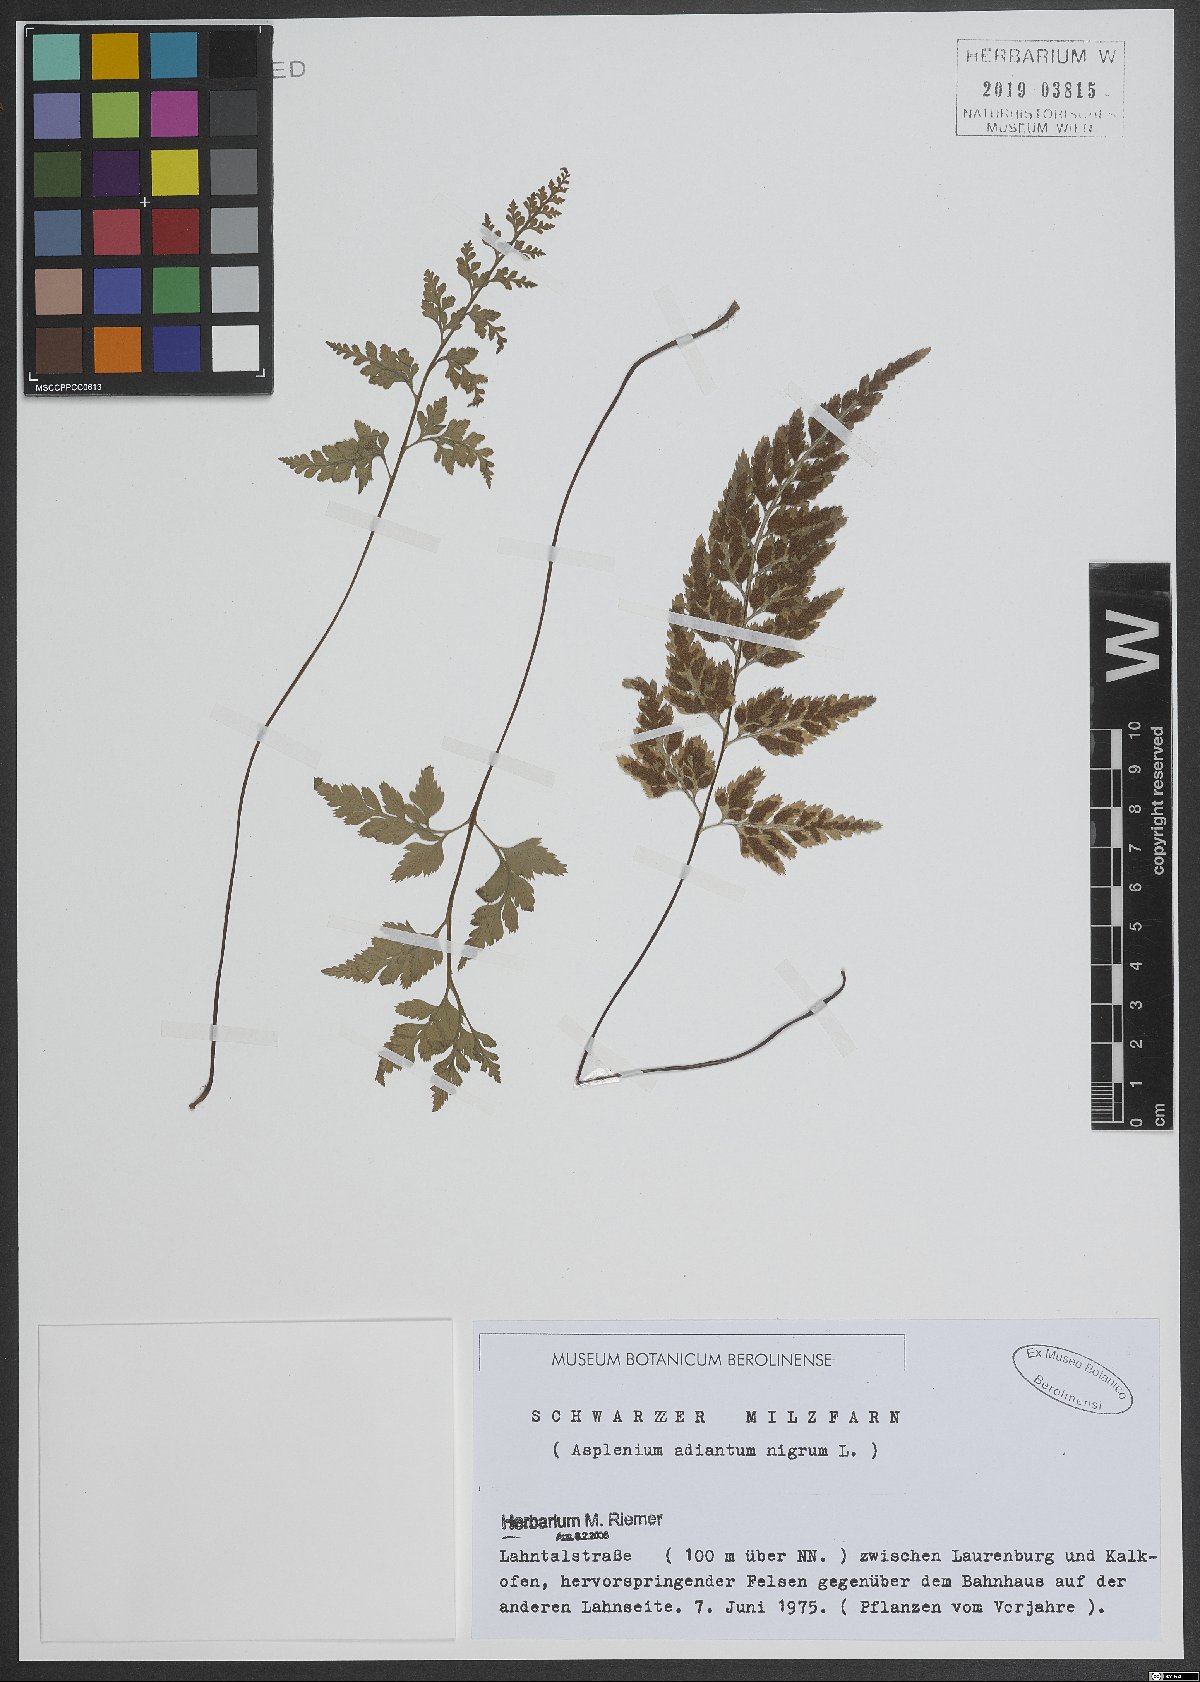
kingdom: Plantae
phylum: Tracheophyta
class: Polypodiopsida
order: Polypodiales
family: Aspleniaceae
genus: Asplenium
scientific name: Asplenium adiantum-nigrum
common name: Black spleenwort
